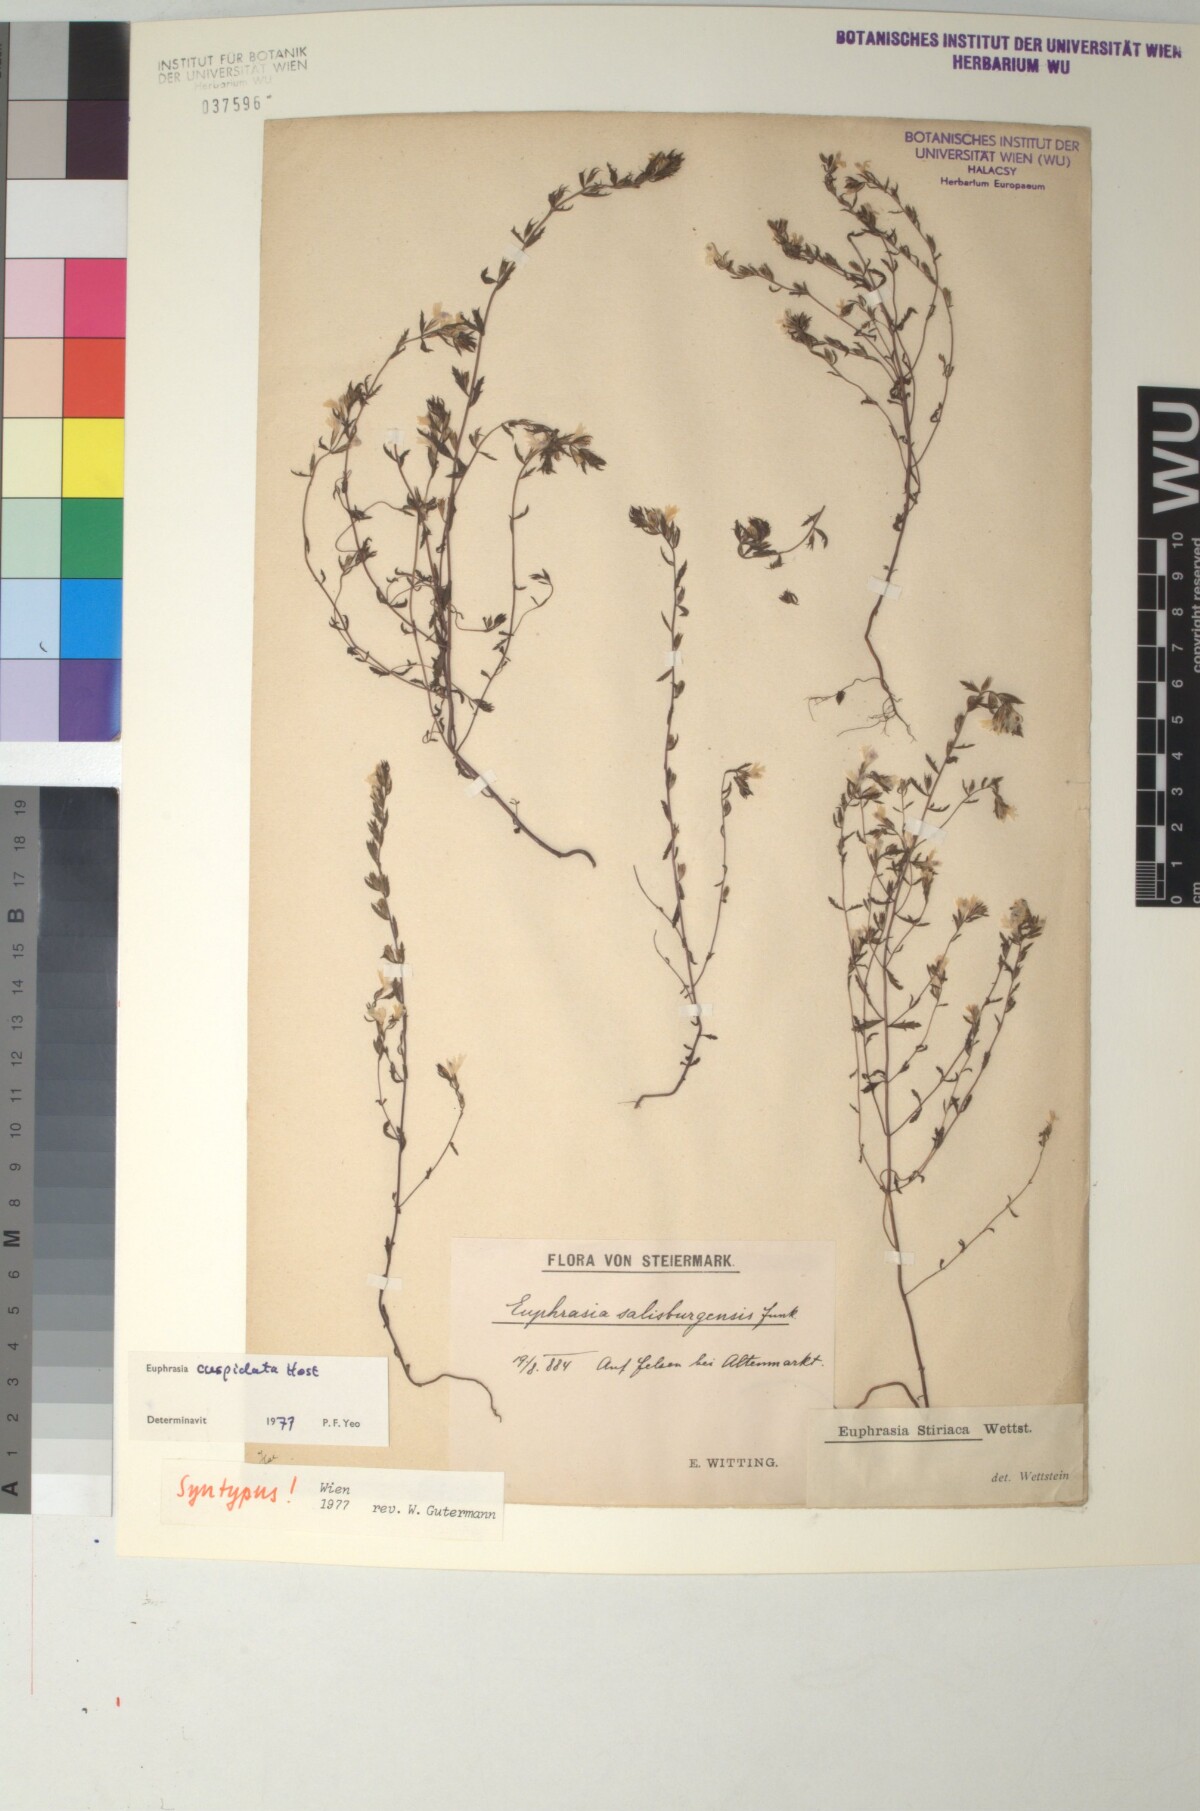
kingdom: Plantae
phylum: Tracheophyta
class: Magnoliopsida
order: Lamiales
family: Orobanchaceae
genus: Euphrasia
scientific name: Euphrasia cuspidata
